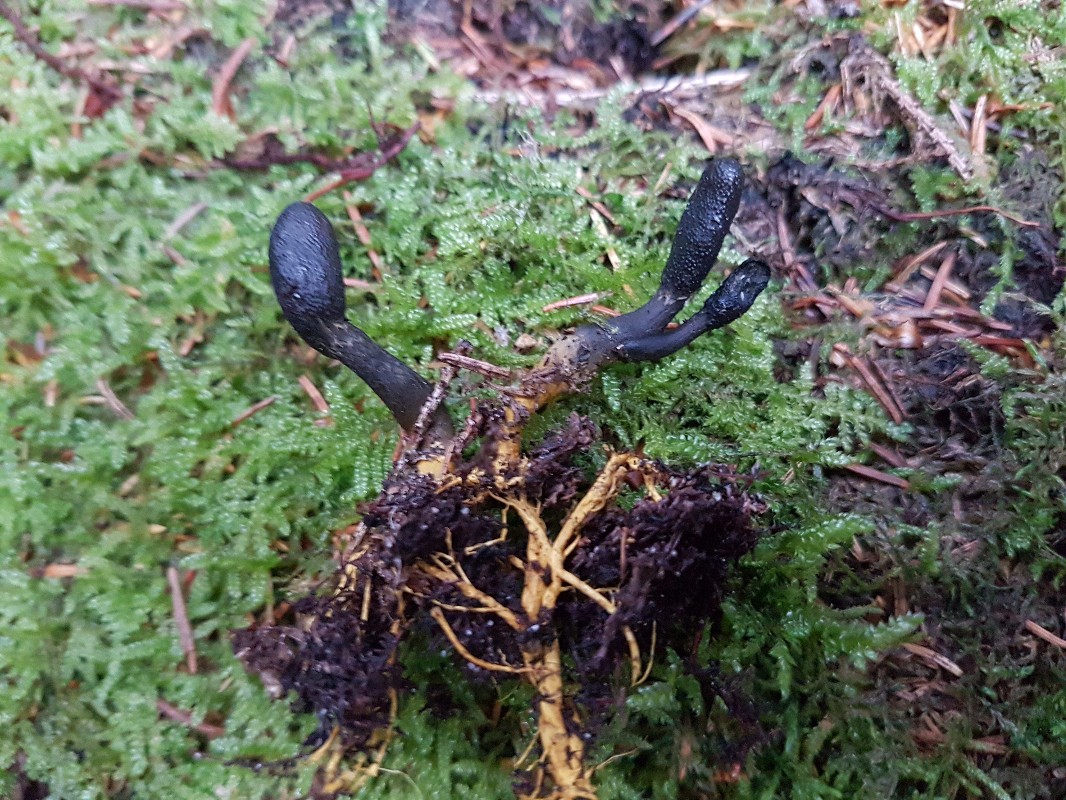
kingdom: Fungi
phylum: Ascomycota
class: Sordariomycetes
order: Hypocreales
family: Ophiocordycipitaceae
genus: Tolypocladium
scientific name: Tolypocladium ophioglossoides
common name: slank snyltekølle
